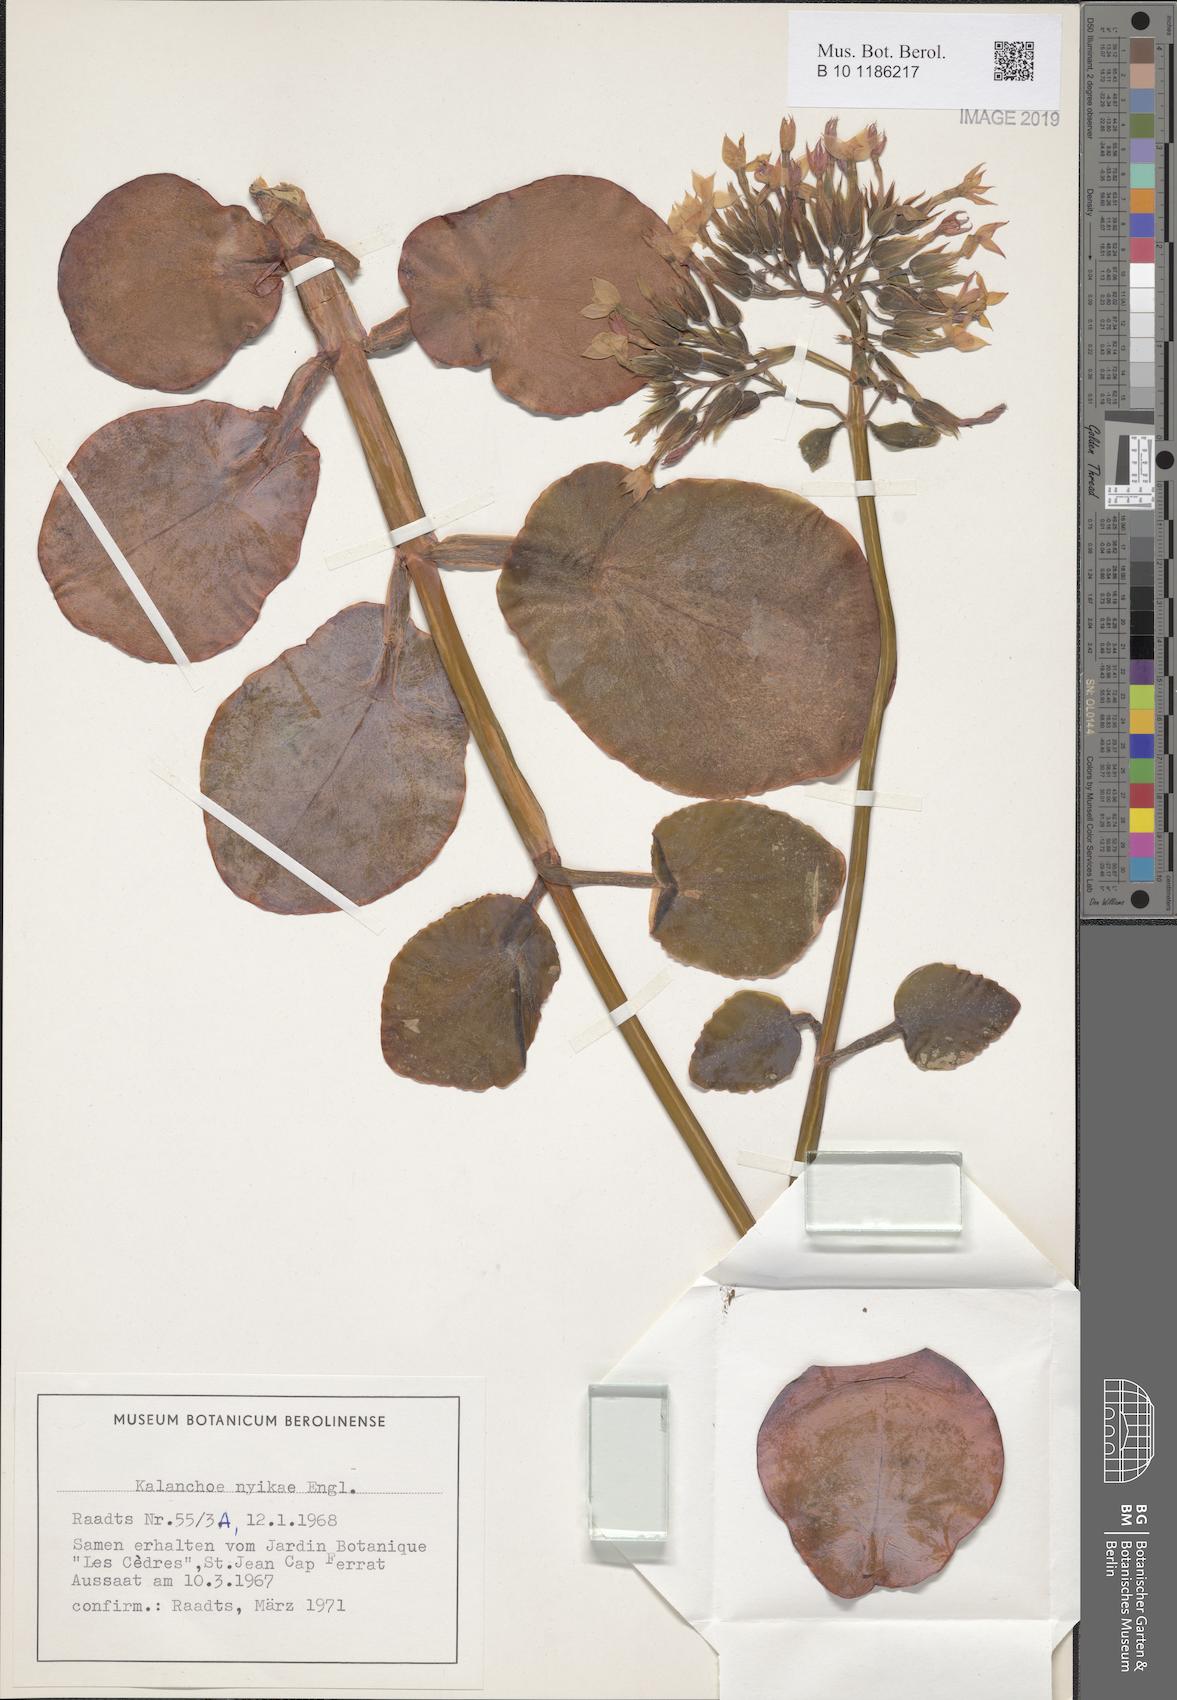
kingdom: Plantae
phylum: Tracheophyta
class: Magnoliopsida
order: Saxifragales
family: Crassulaceae
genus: Kalanchoe
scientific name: Kalanchoe nyikae
